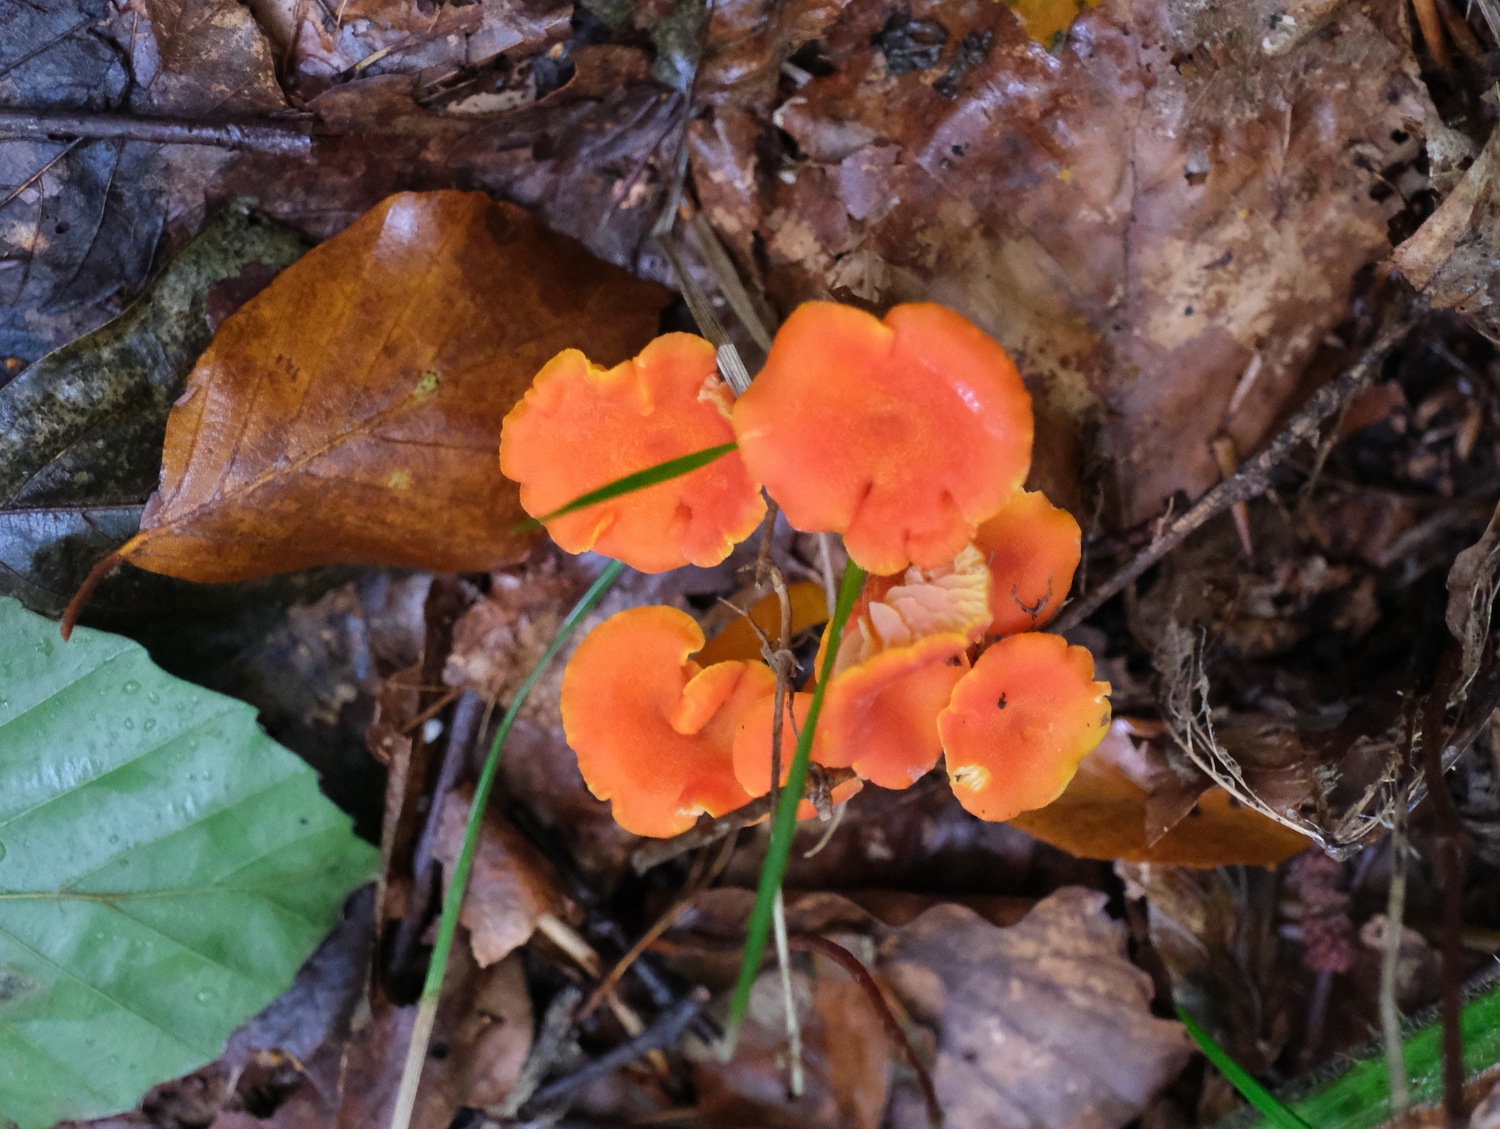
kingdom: Fungi
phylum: Basidiomycota
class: Agaricomycetes
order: Agaricales
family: Hygrophoraceae
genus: Hygrocybe
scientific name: Hygrocybe miniata
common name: mønje-vokshat
